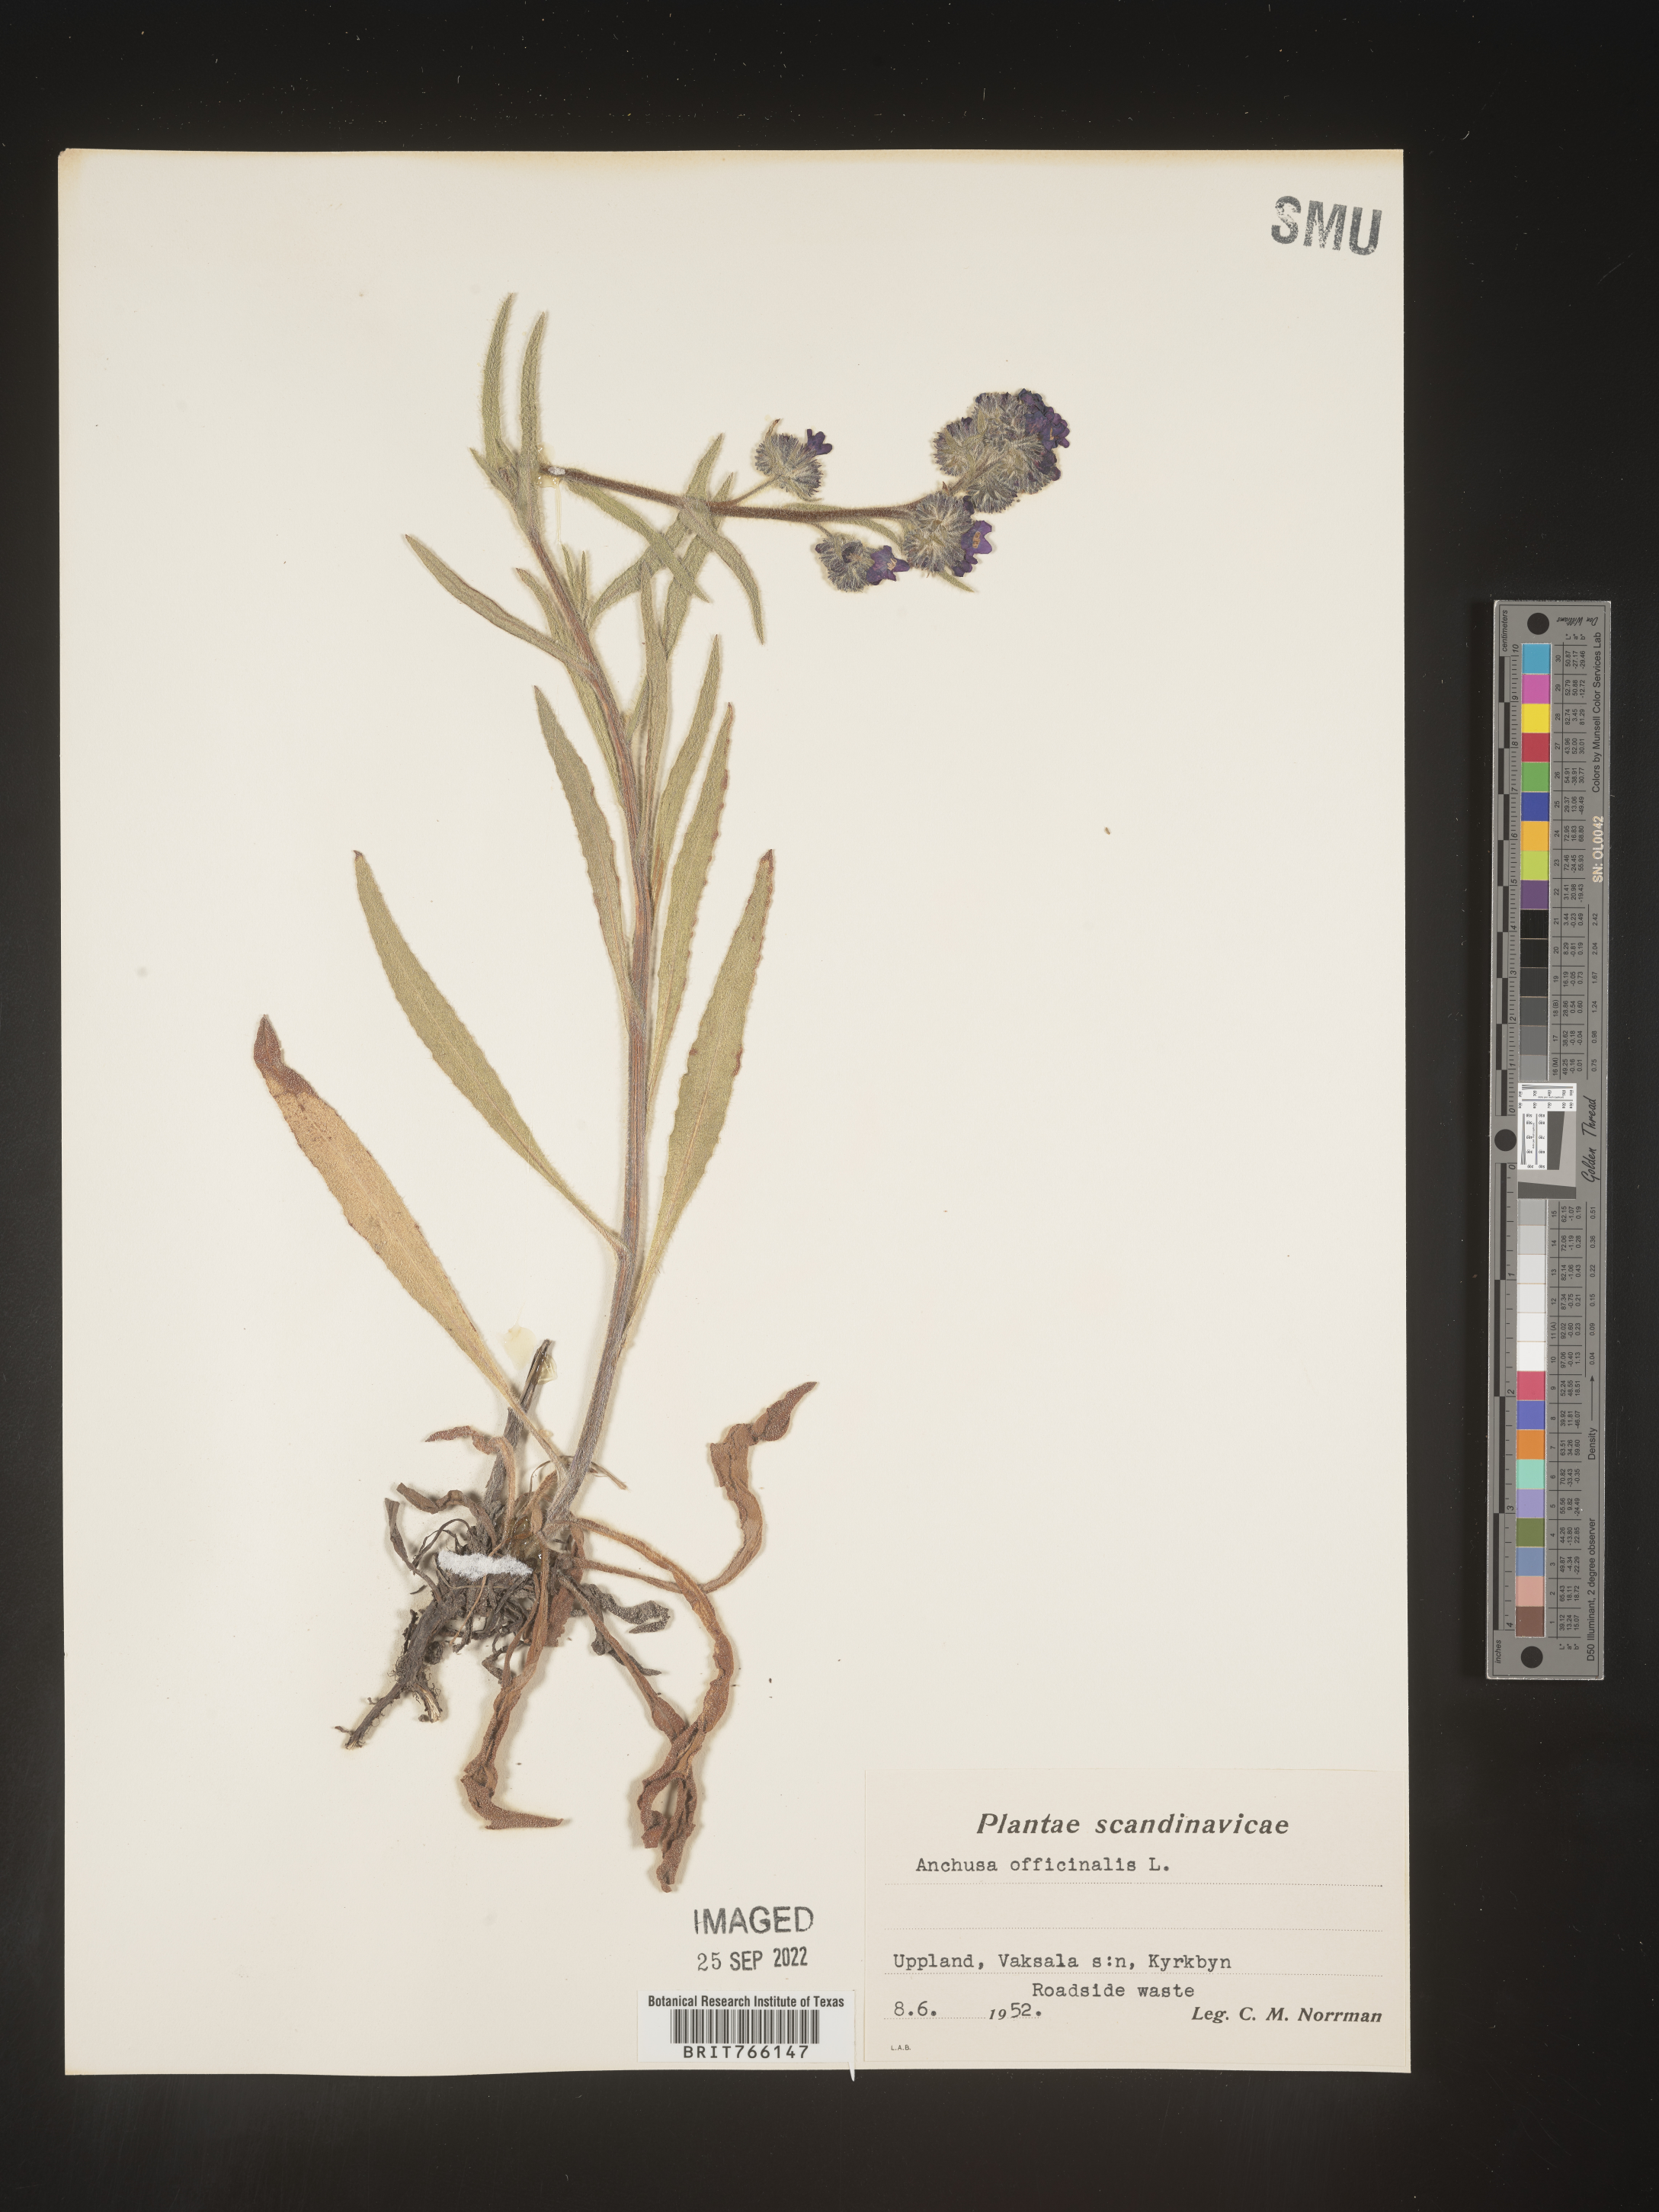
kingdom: Plantae
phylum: Tracheophyta
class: Magnoliopsida
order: Boraginales
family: Boraginaceae
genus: Anchusa
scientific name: Anchusa
